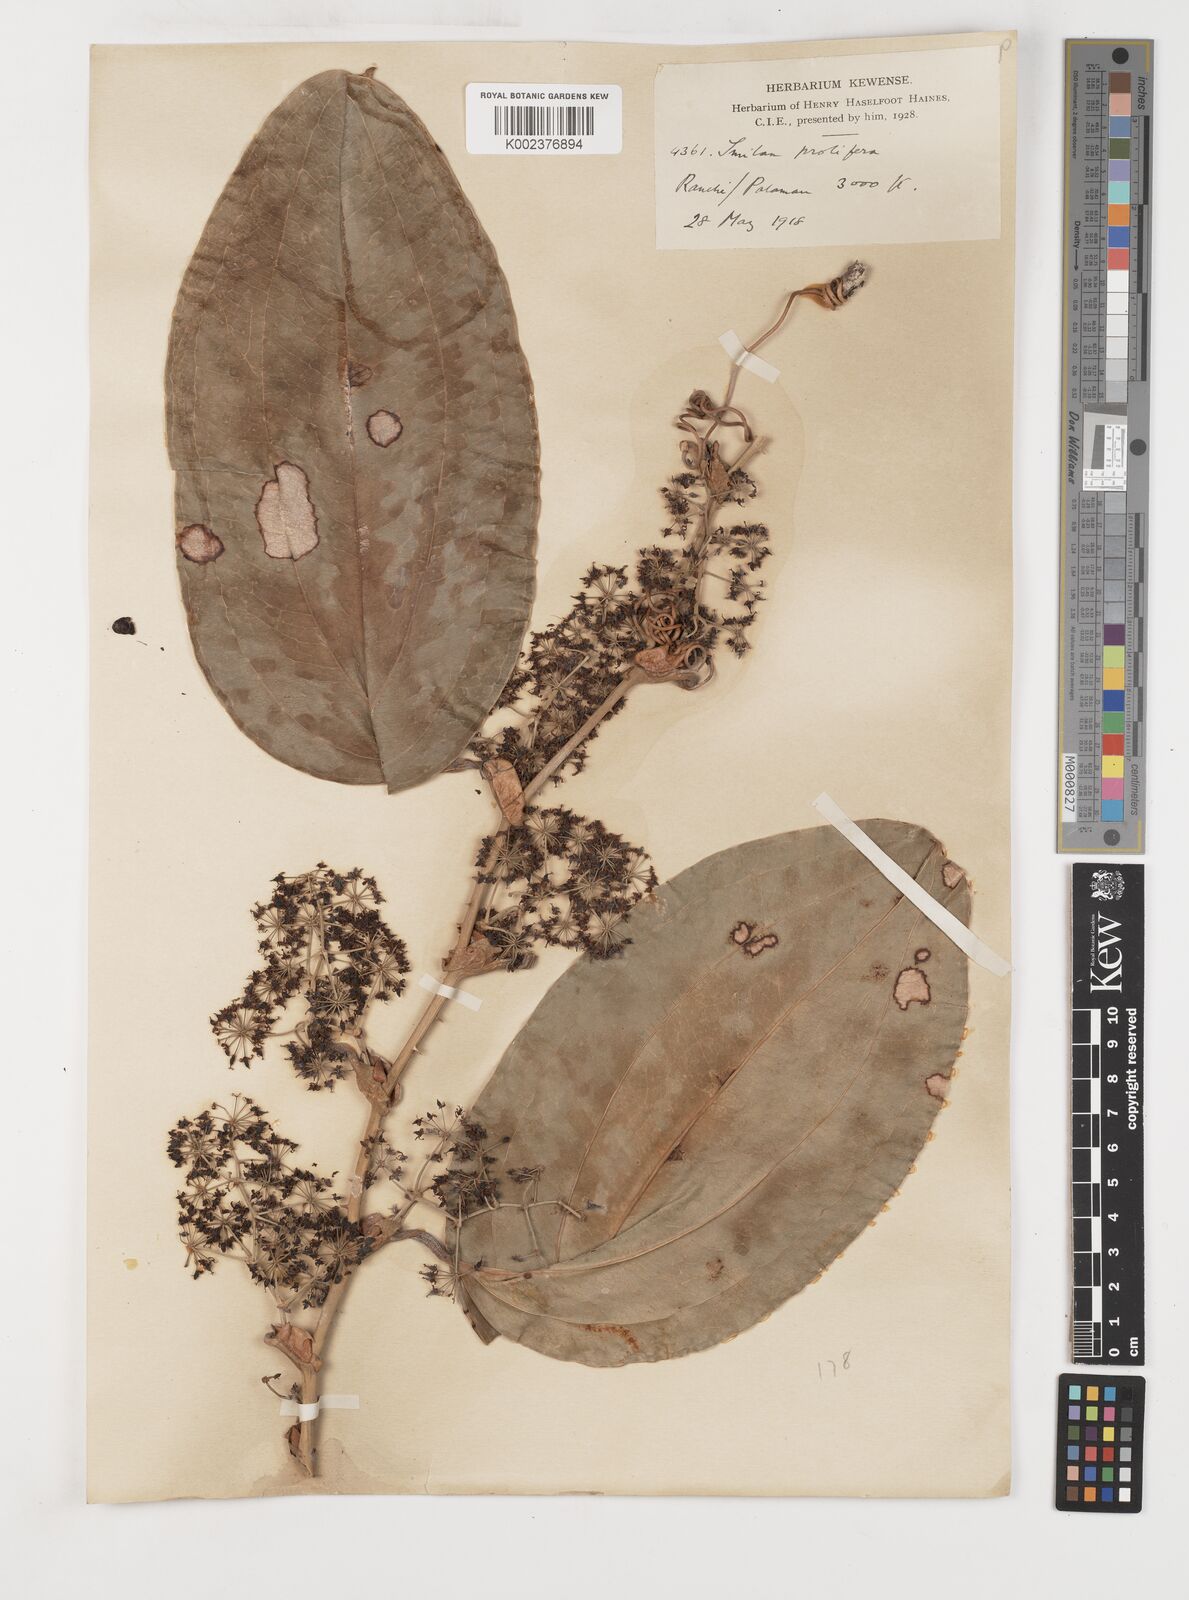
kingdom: Plantae
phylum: Tracheophyta
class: Liliopsida
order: Liliales
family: Smilacaceae
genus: Smilax
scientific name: Smilax prolifera
